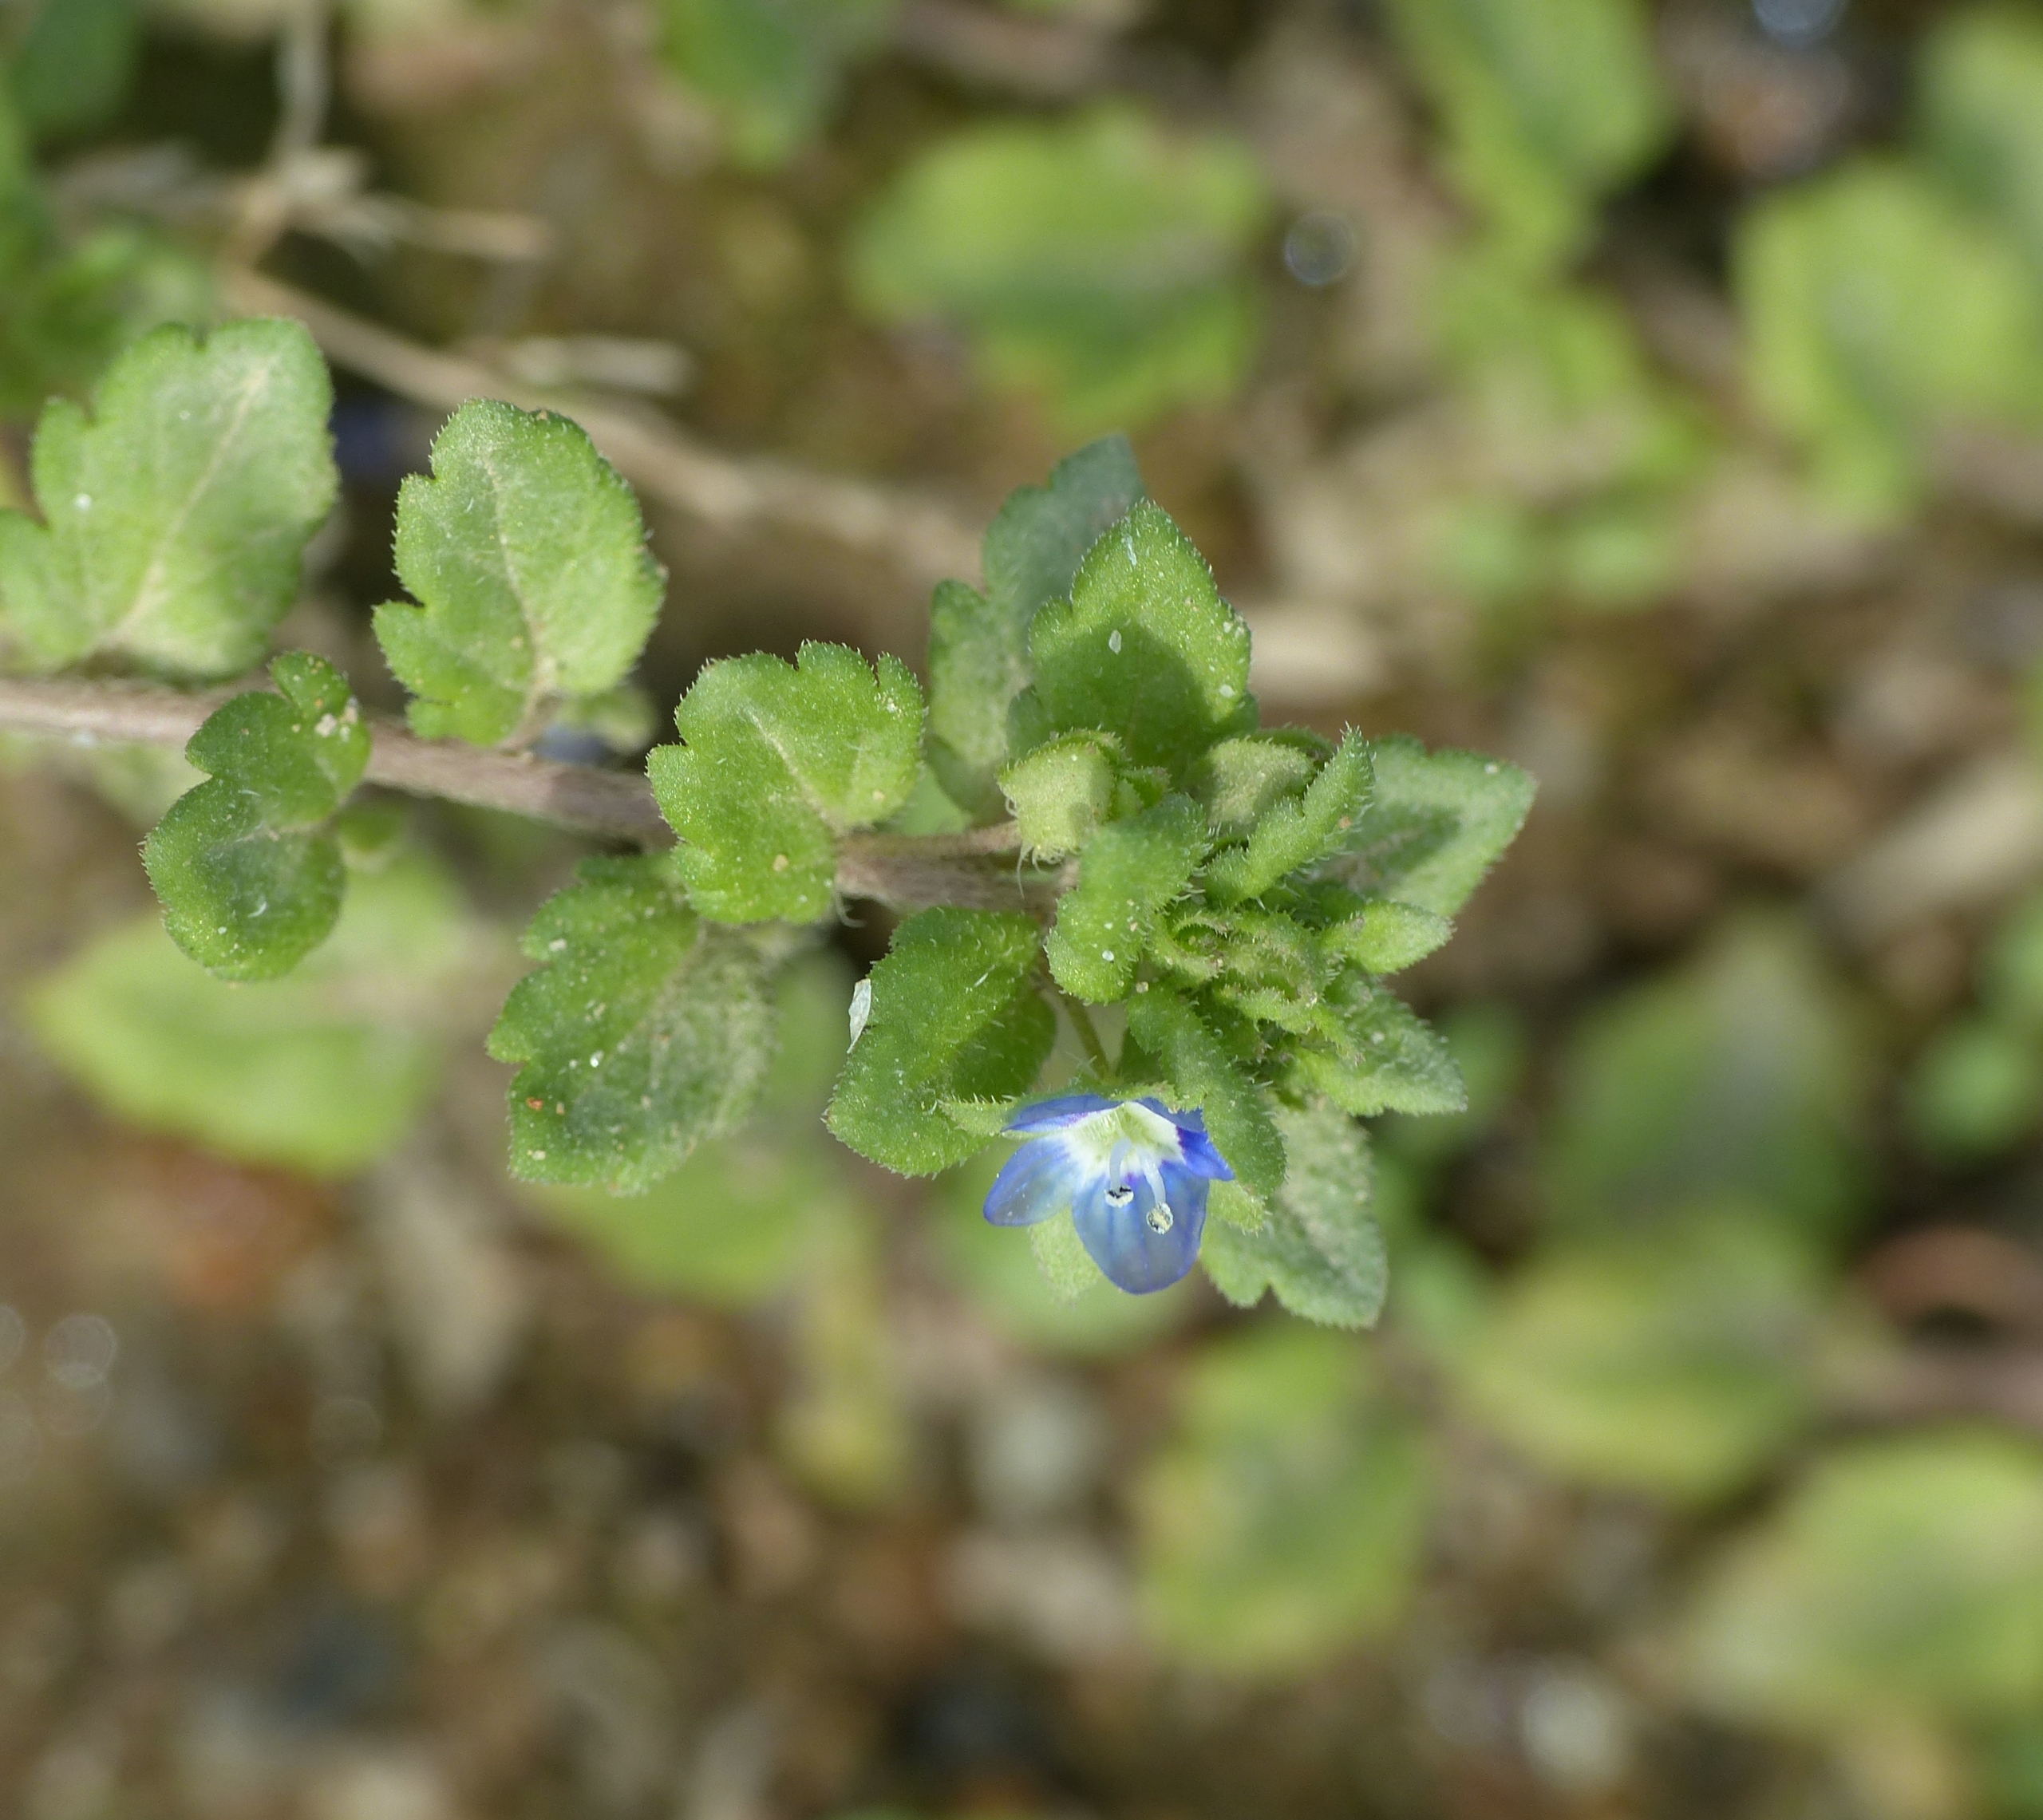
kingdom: Plantae
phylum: Tracheophyta
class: Magnoliopsida
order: Lamiales
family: Plantaginaceae
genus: Veronica
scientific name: Veronica polita
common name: Blank ærenpris
